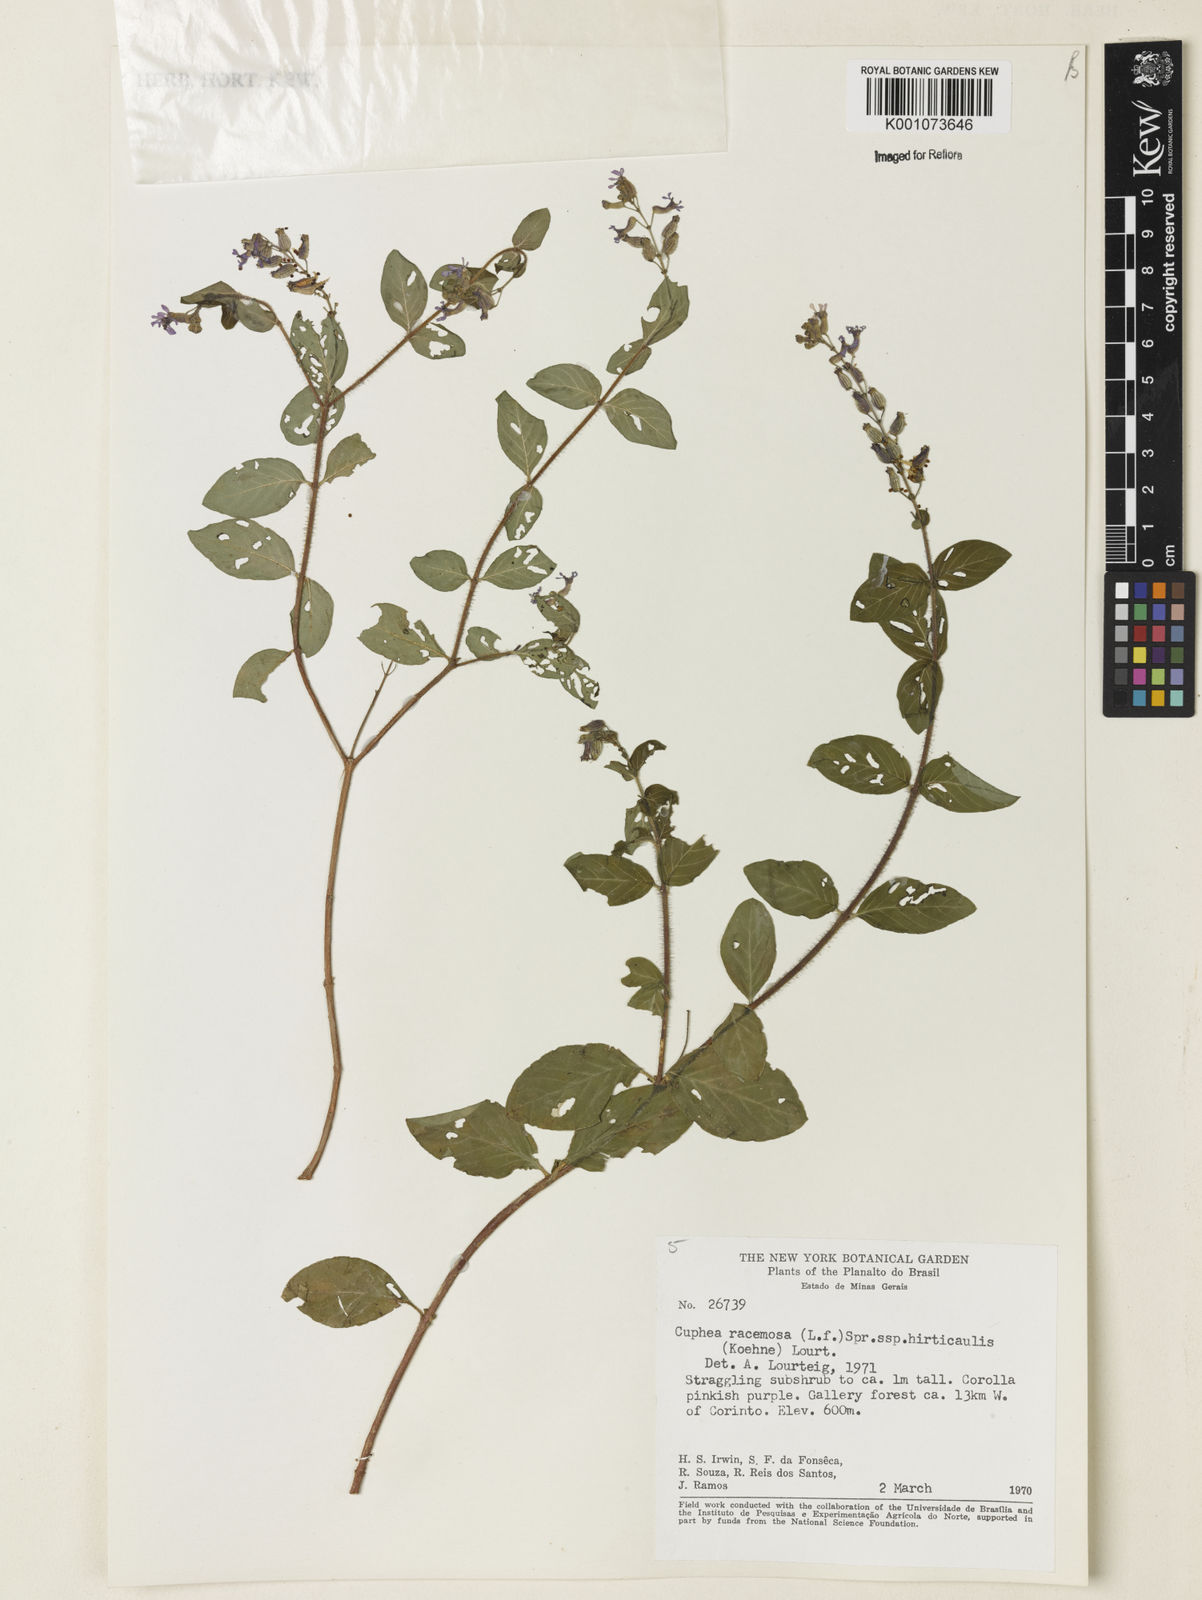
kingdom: Plantae
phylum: Tracheophyta
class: Magnoliopsida
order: Myrtales
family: Lythraceae
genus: Cuphea
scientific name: Cuphea racemosa
